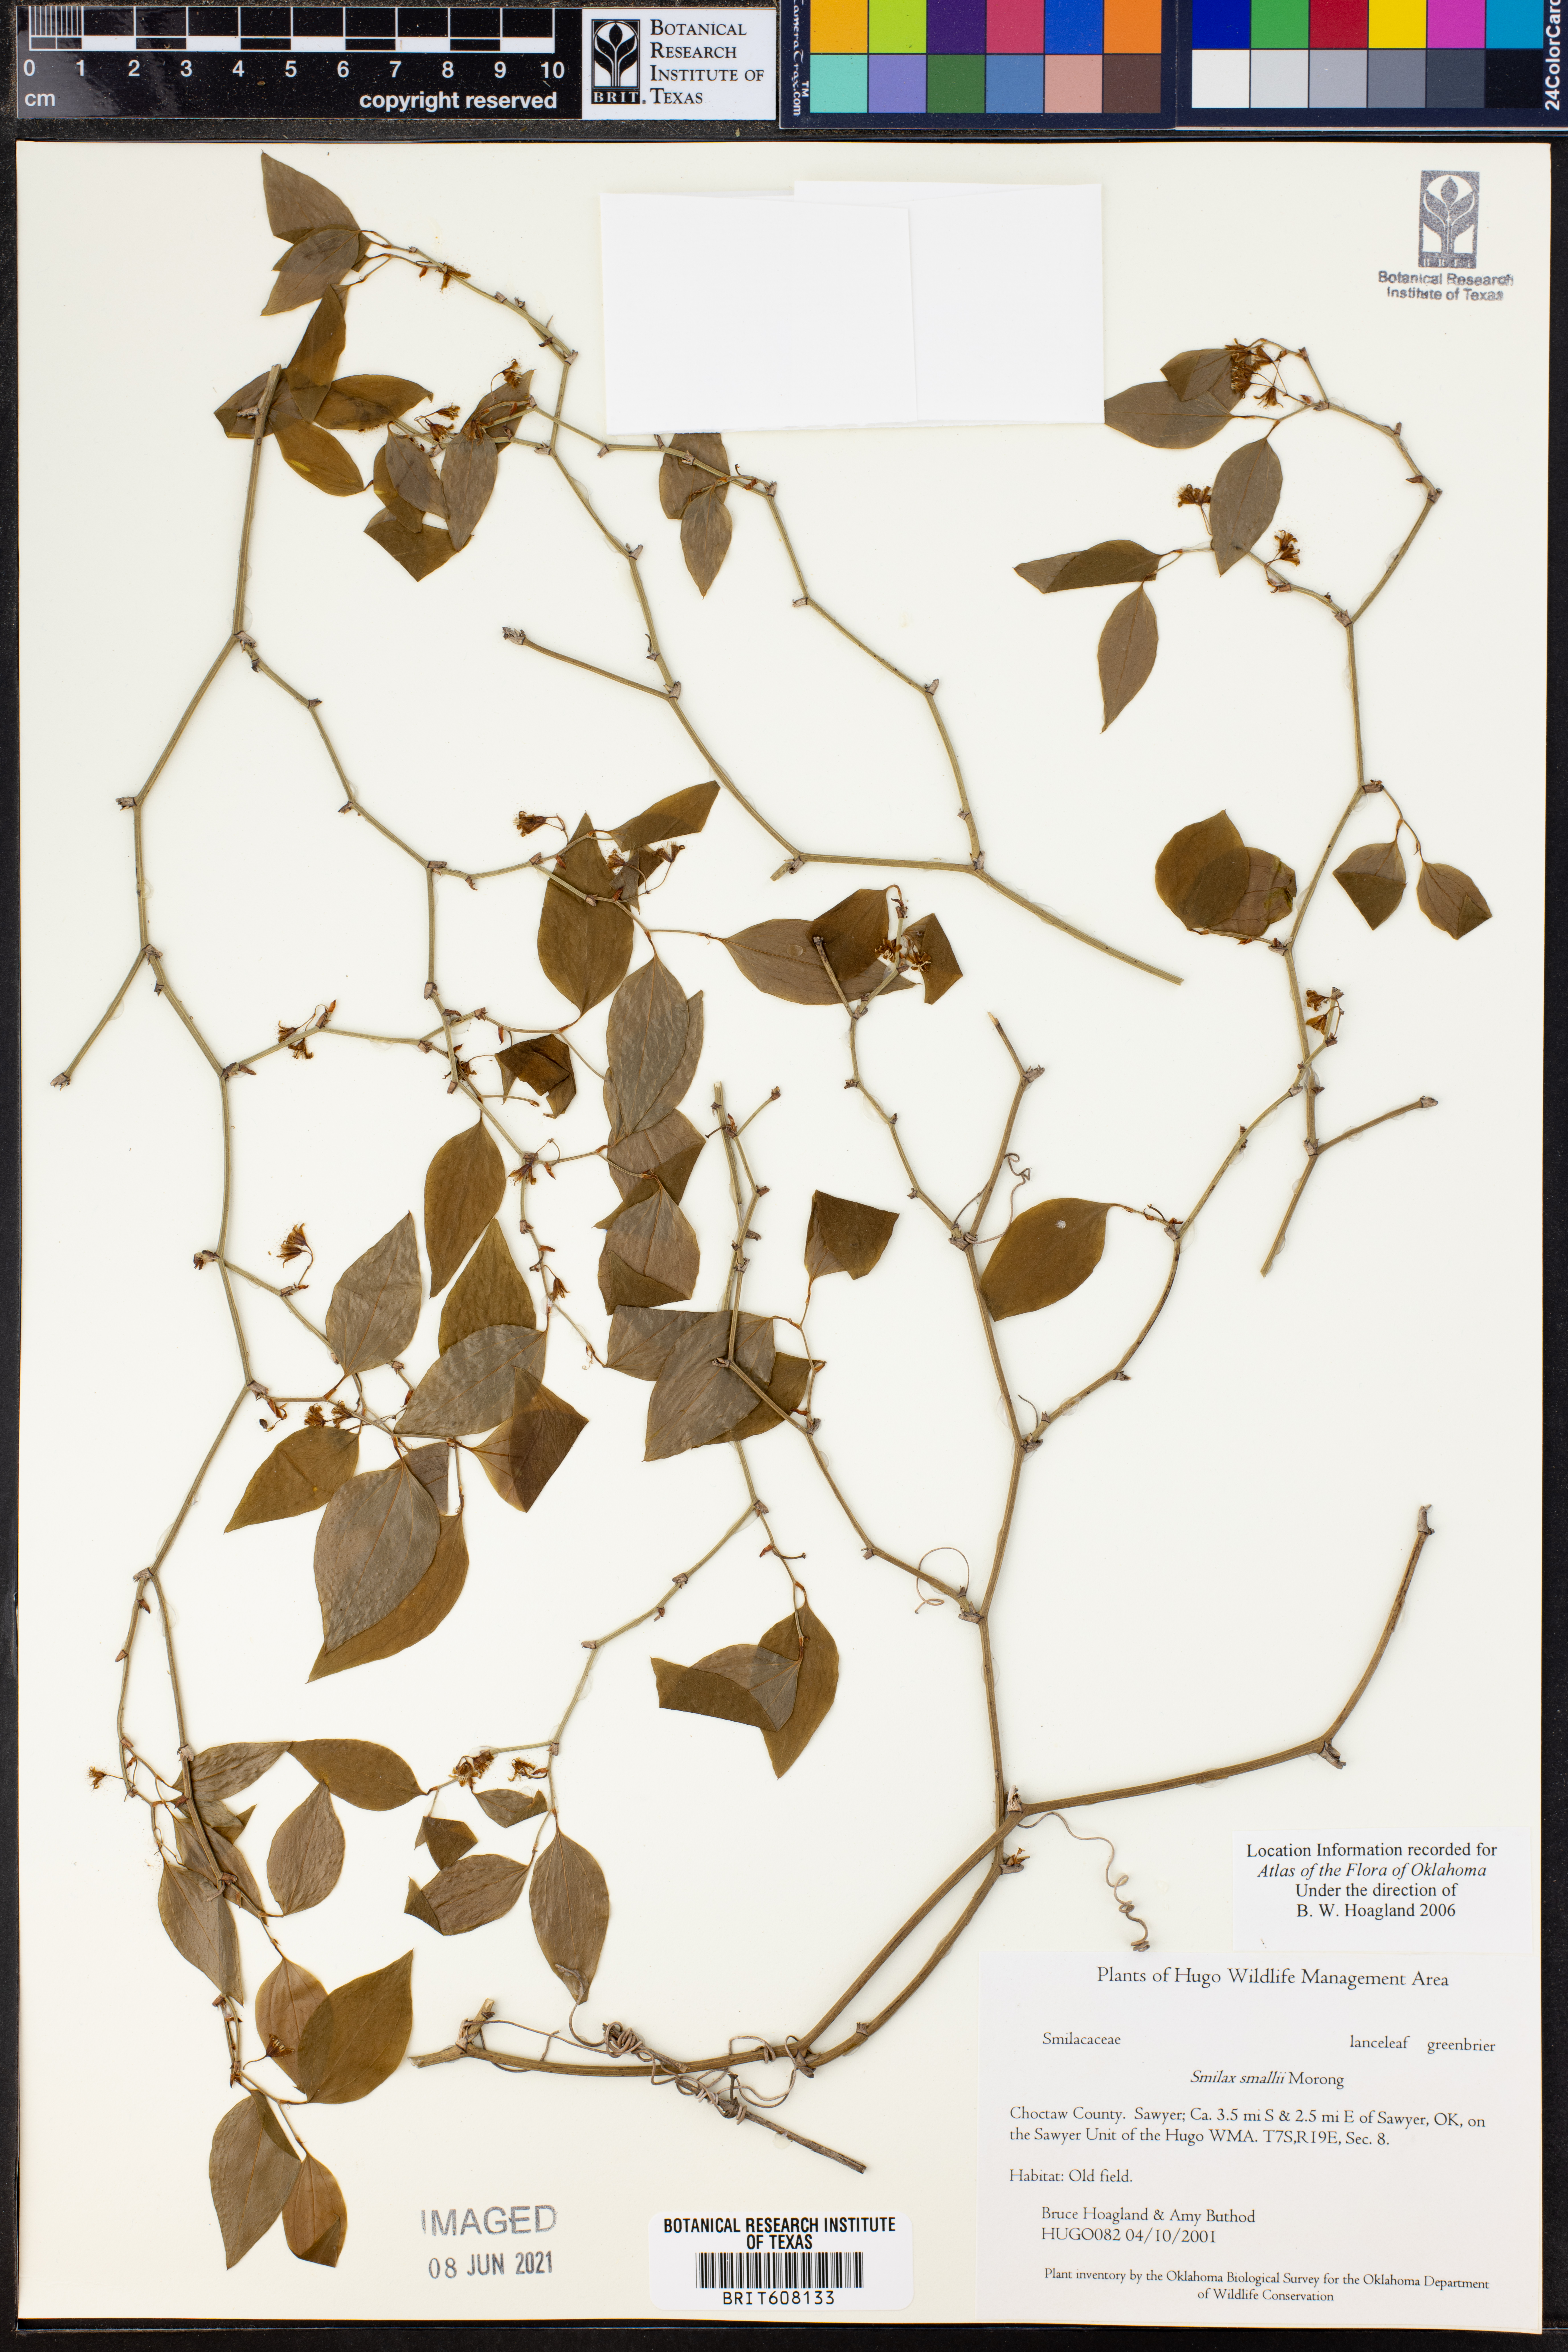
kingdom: Plantae
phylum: Tracheophyta
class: Liliopsida
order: Liliales
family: Smilacaceae
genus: Smilax
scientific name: Smilax maritima
